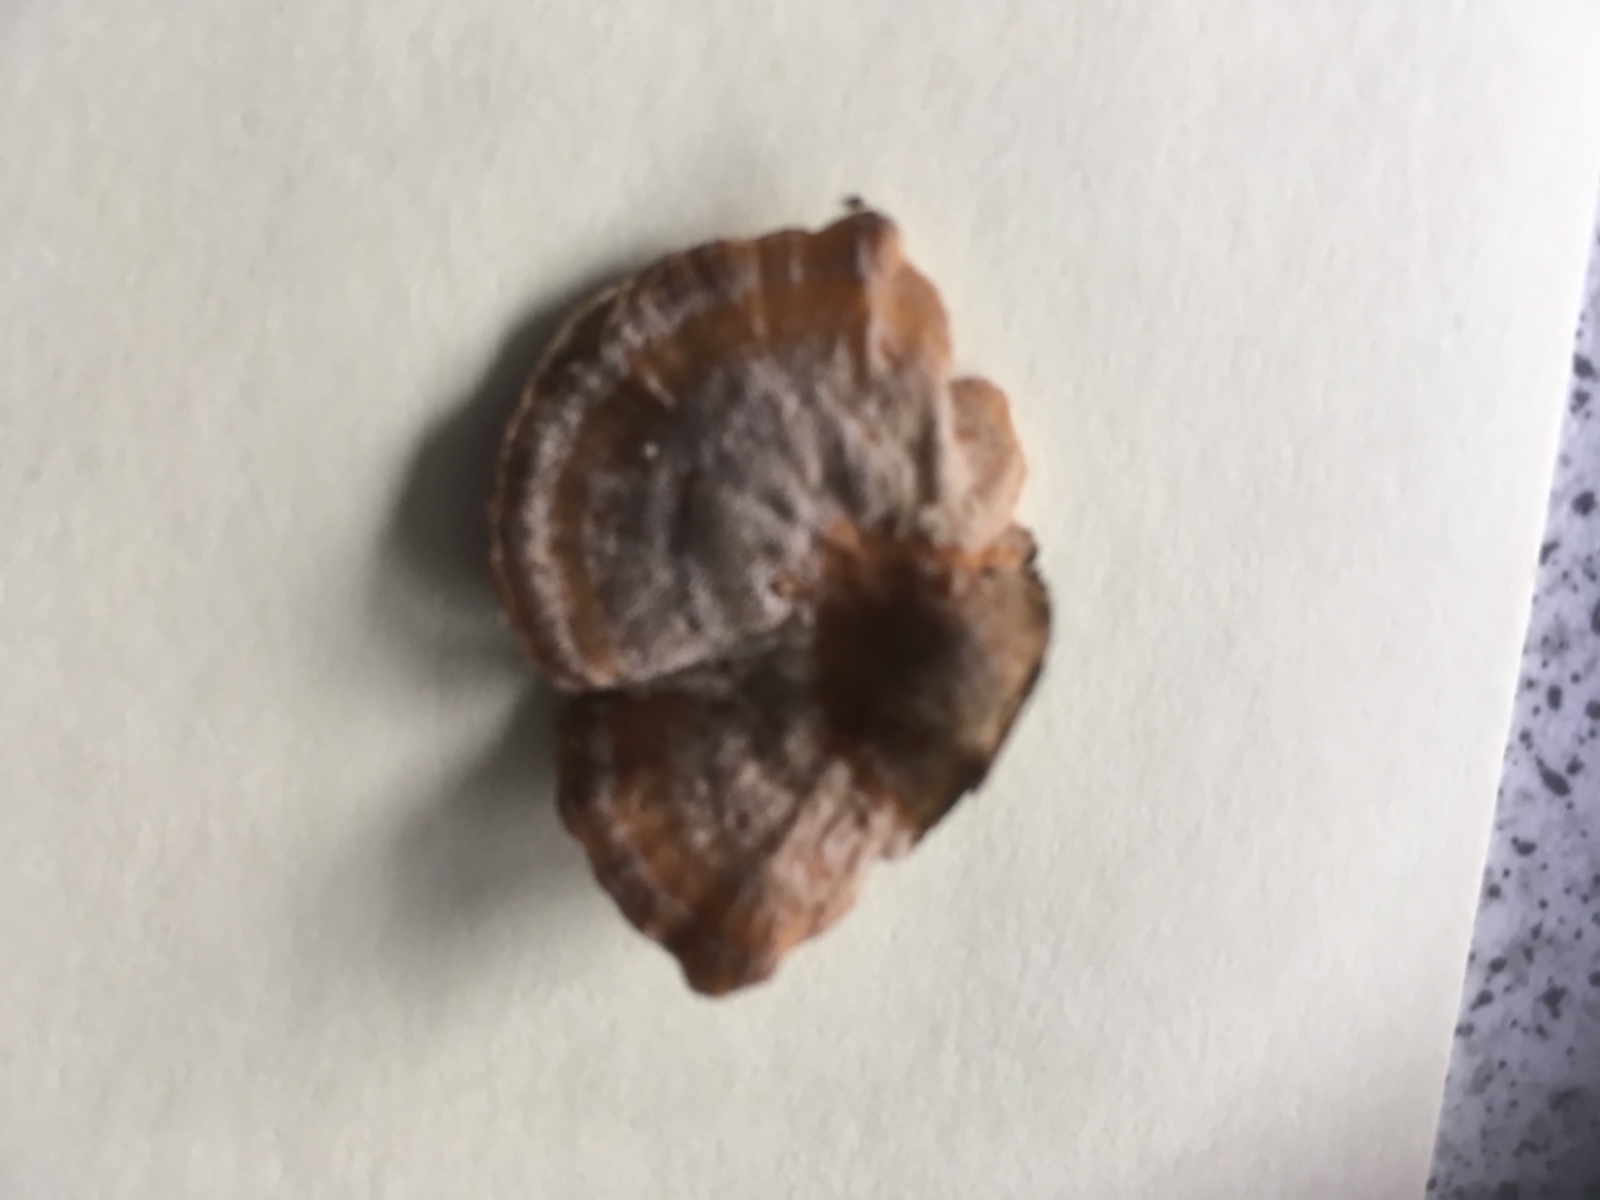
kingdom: Fungi
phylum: Basidiomycota
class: Agaricomycetes
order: Polyporales
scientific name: Polyporales
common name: poresvampordenen
